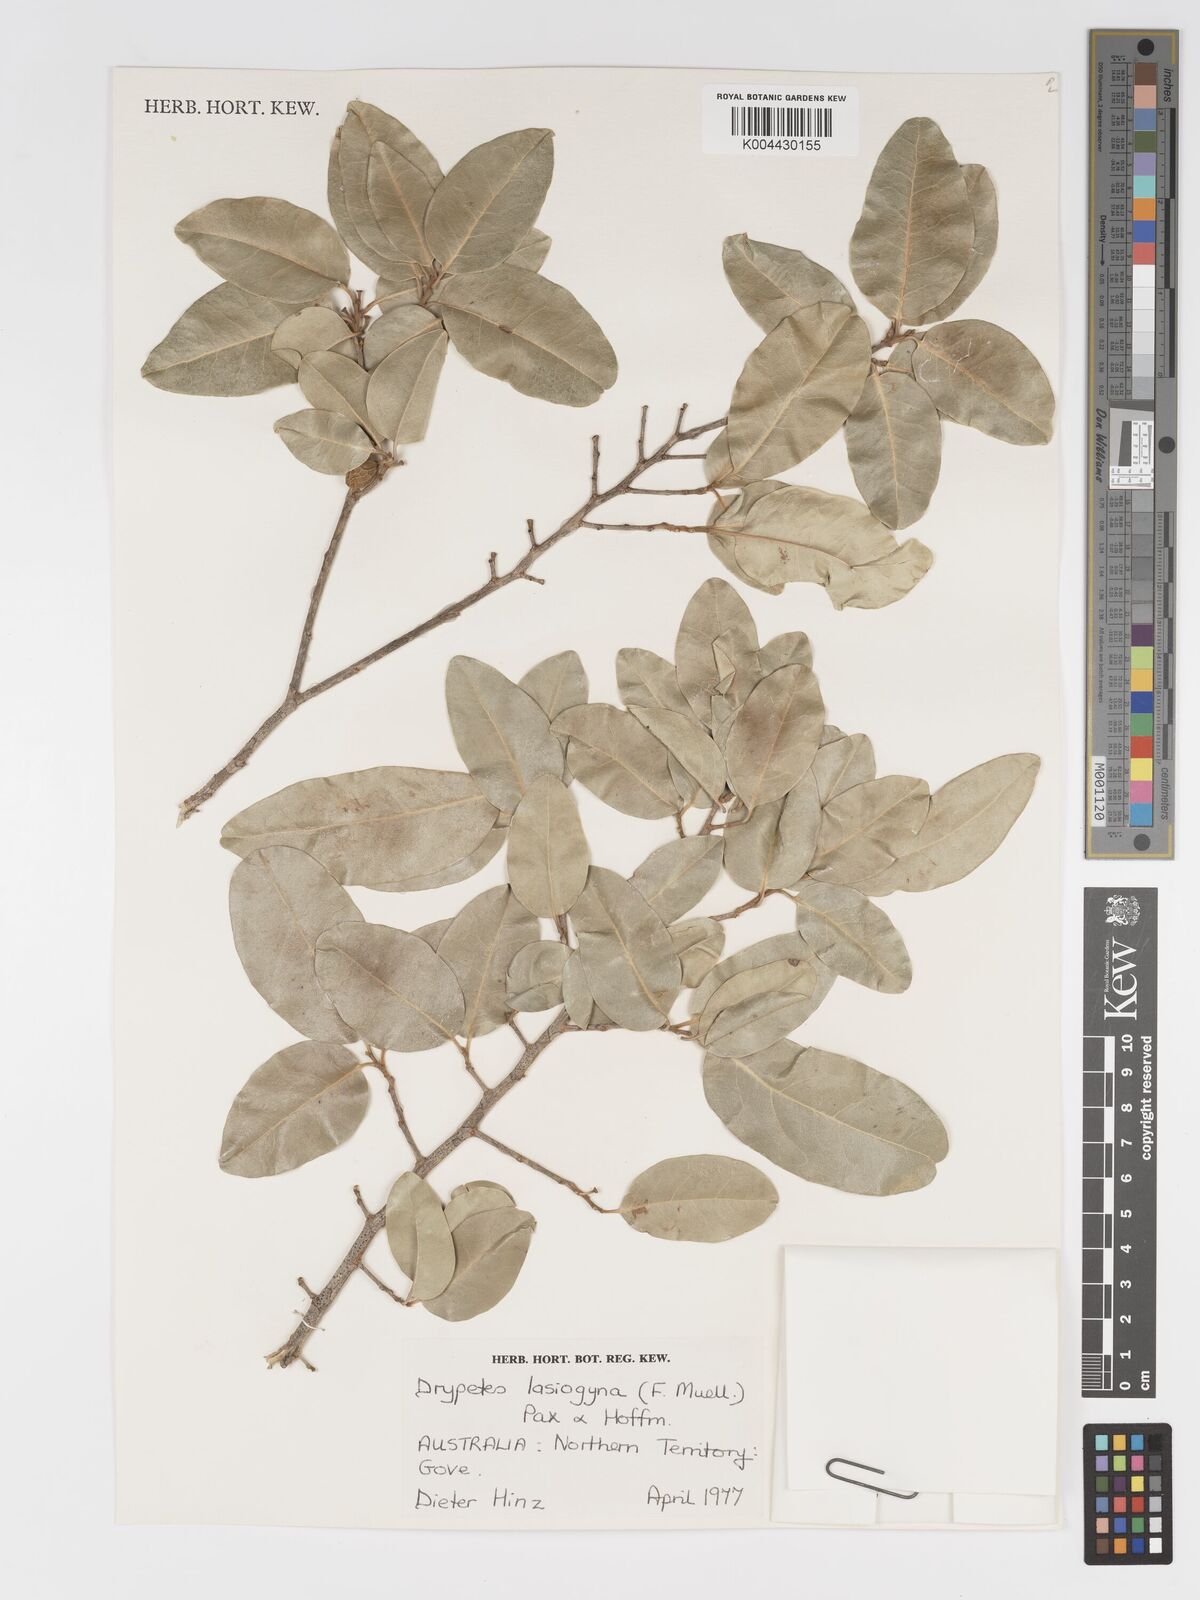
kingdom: Plantae
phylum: Tracheophyta
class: Magnoliopsida
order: Malpighiales
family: Putranjivaceae
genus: Drypetes
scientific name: Drypetes deplanchei
